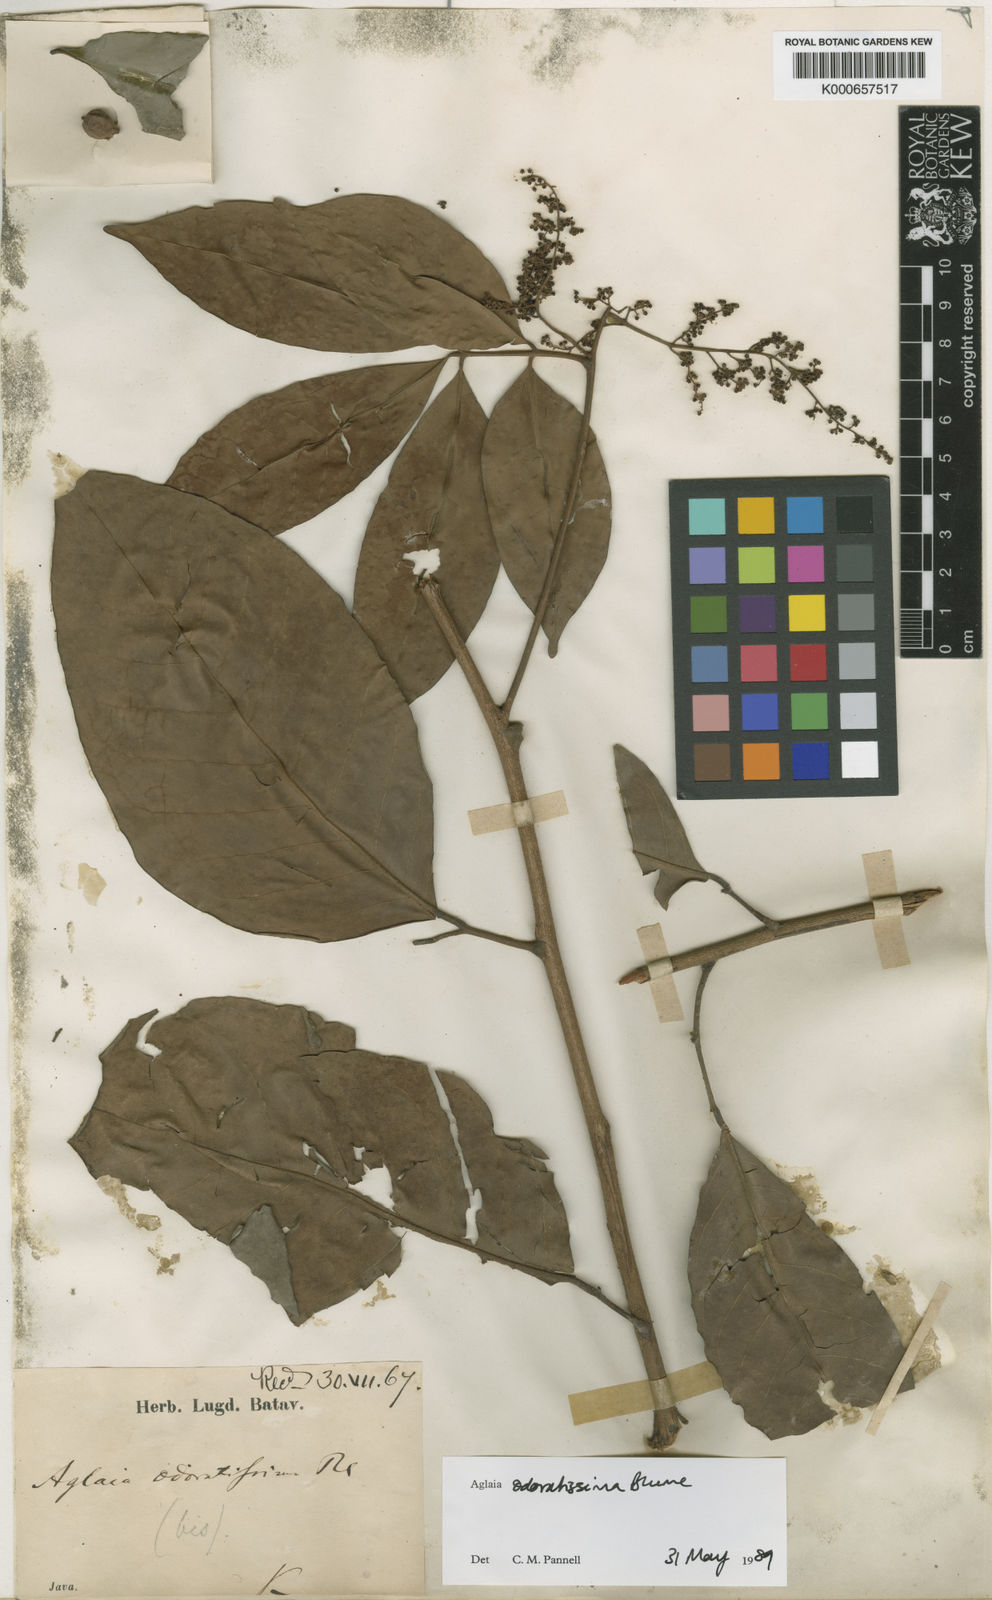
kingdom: Plantae
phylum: Tracheophyta
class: Magnoliopsida
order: Sapindales
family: Meliaceae
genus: Aglaia
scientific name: Aglaia odoratissima
